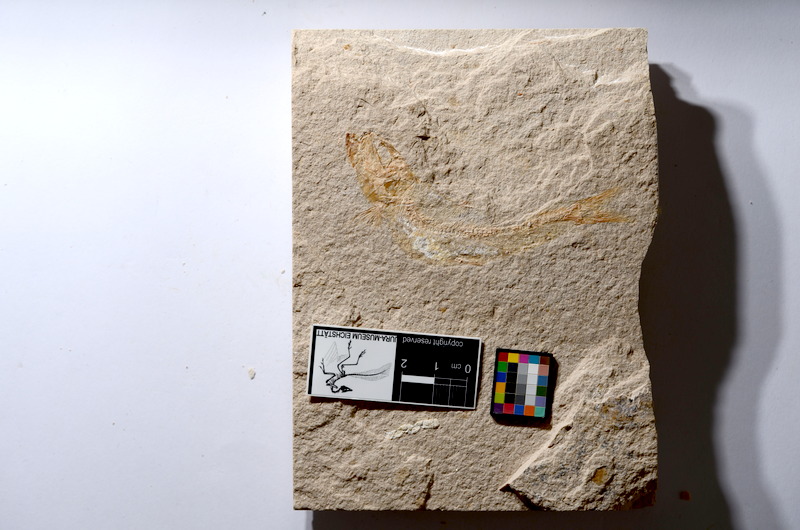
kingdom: Animalia
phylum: Chordata
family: Ascalaboidae
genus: Tharsis
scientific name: Tharsis dubius
